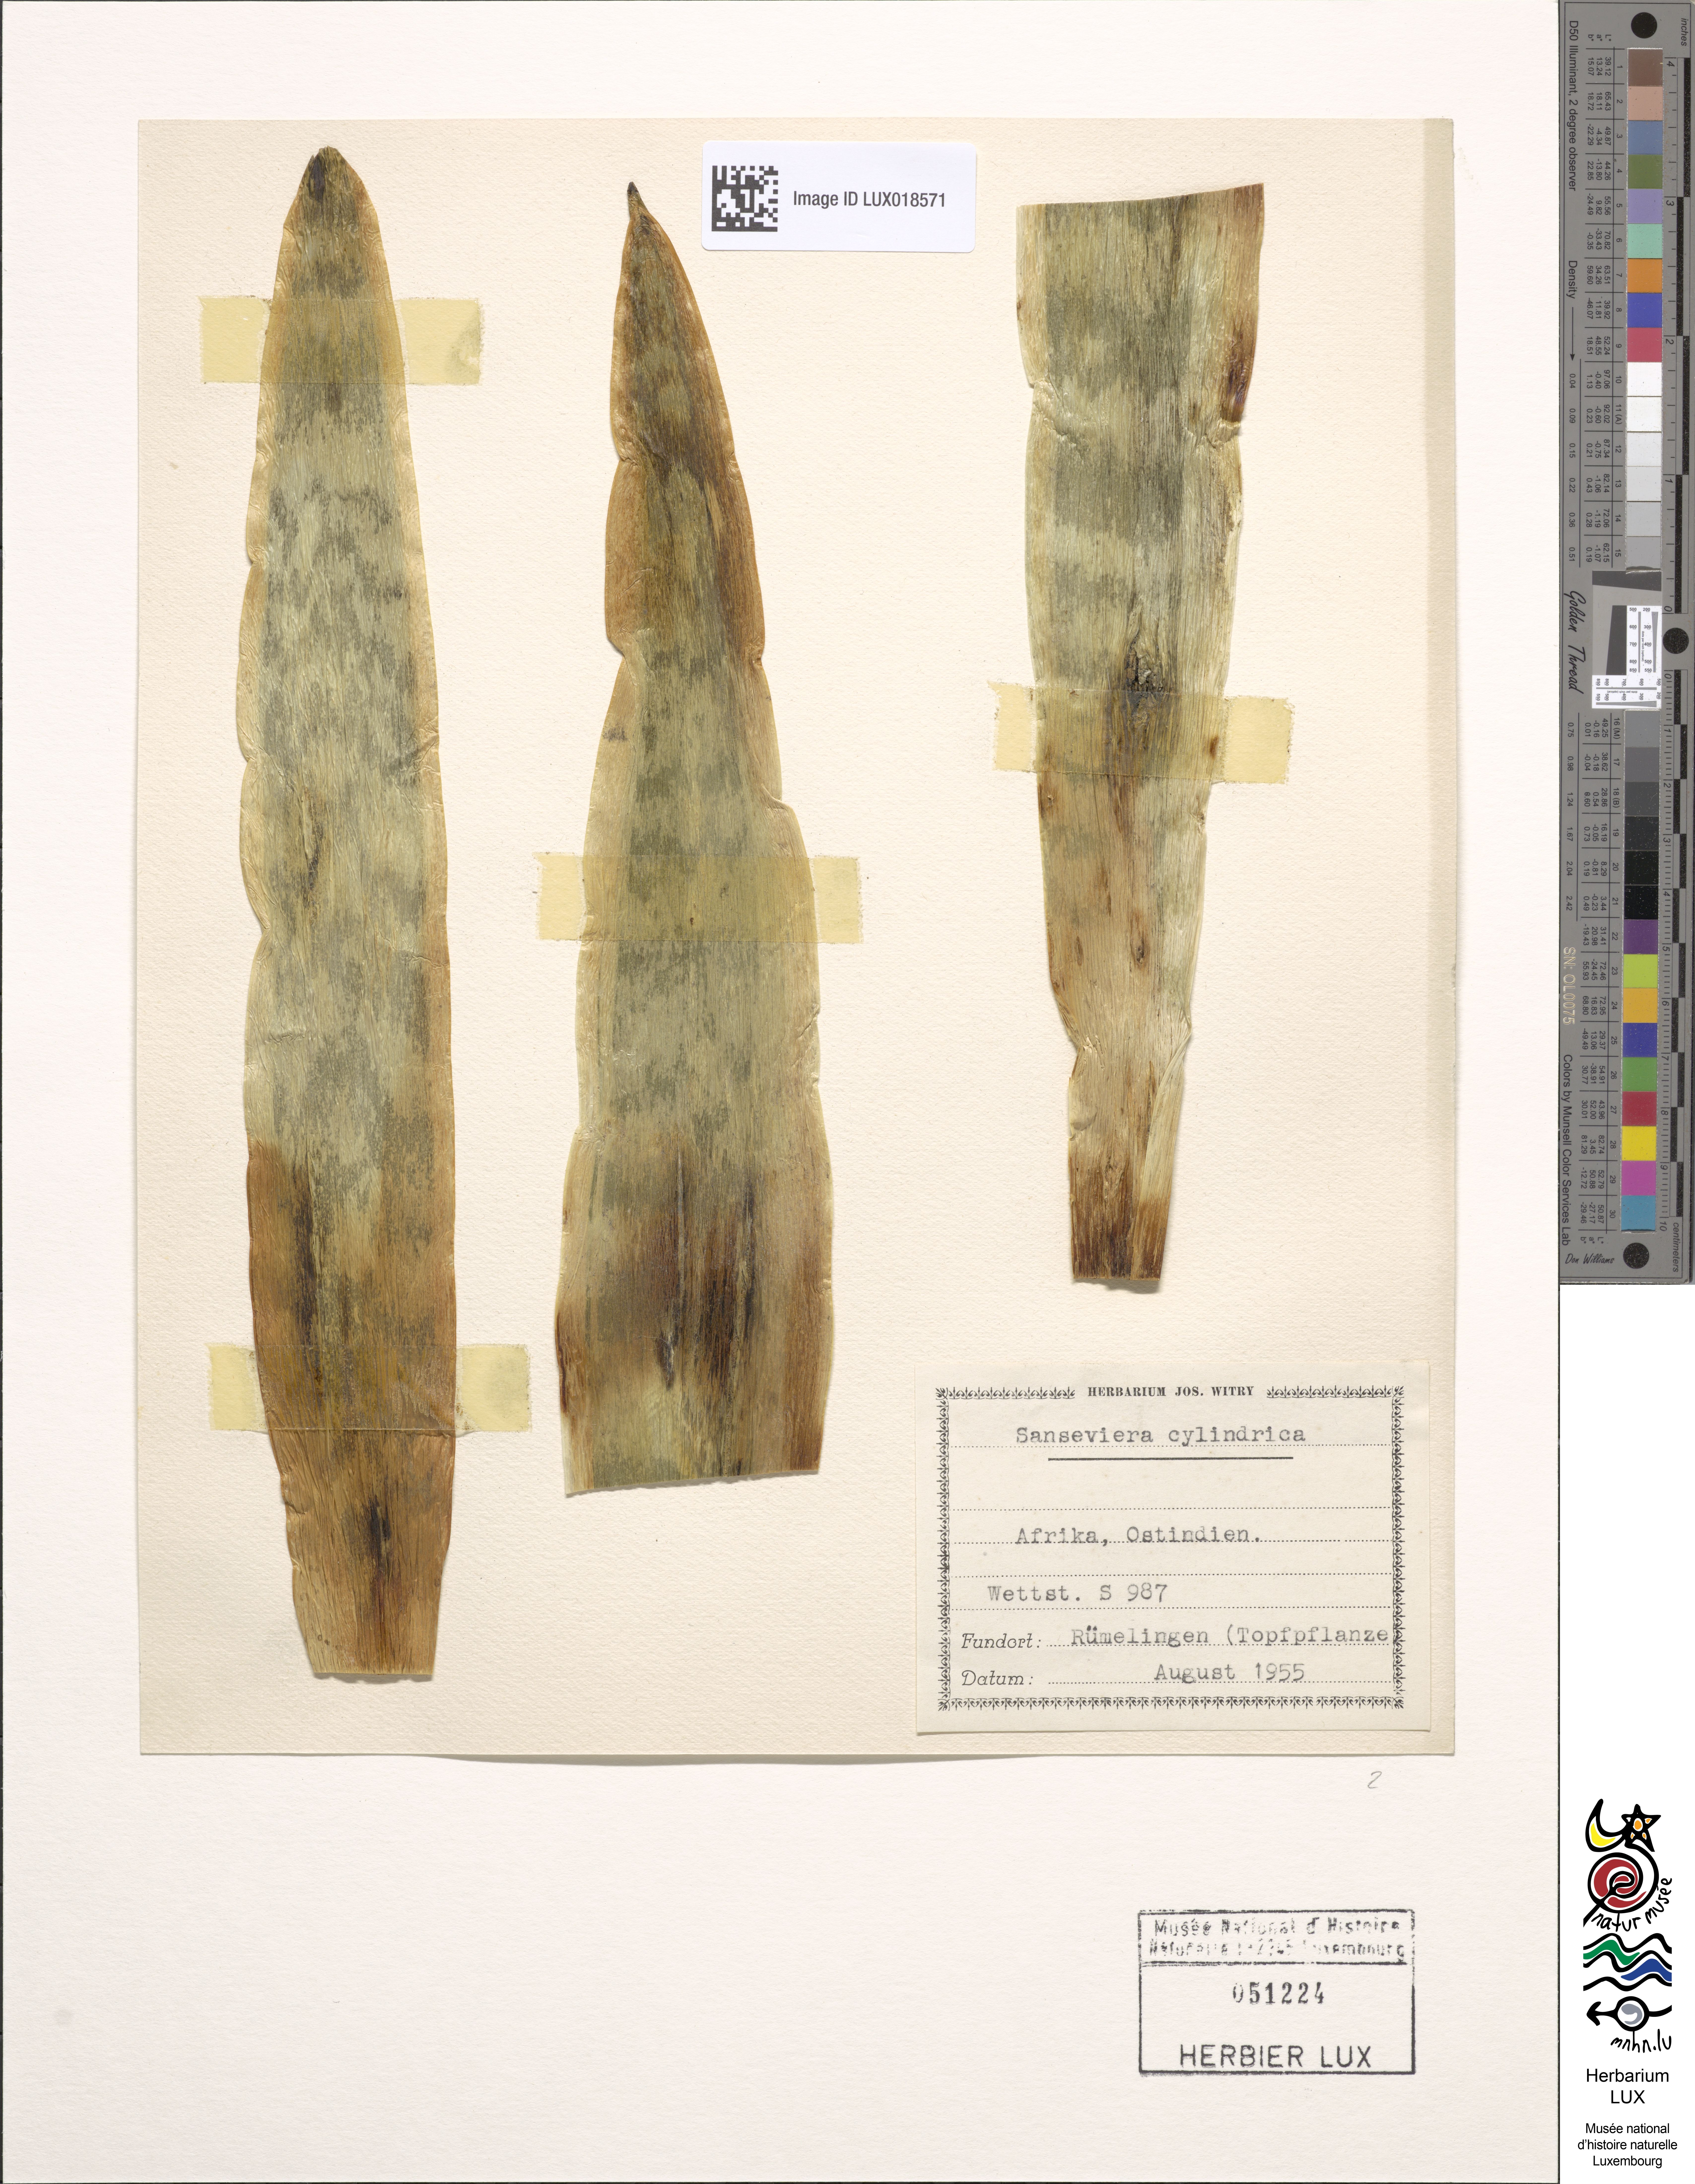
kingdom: Plantae
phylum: Tracheophyta
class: Liliopsida
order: Asparagales
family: Asparagaceae
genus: Dracaena
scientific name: Dracaena angolensis
